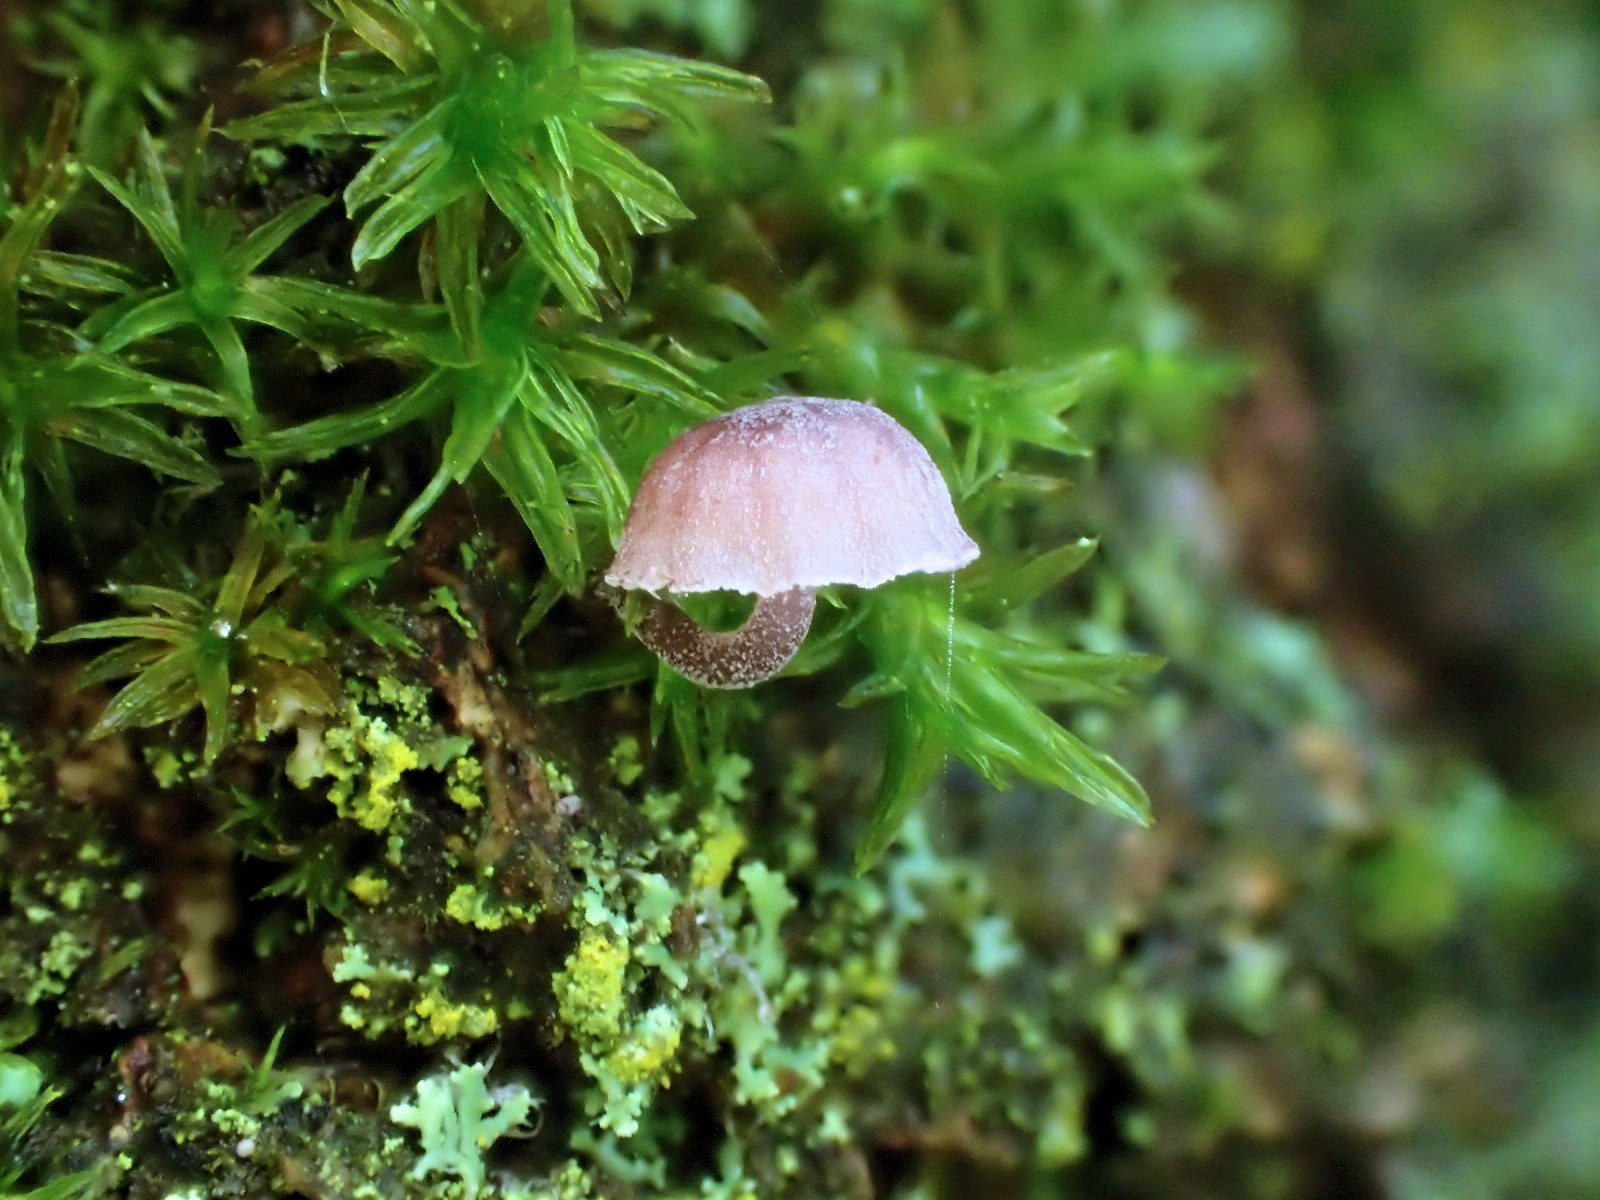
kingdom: Fungi
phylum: Basidiomycota
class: Agaricomycetes
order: Agaricales
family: Mycenaceae
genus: Mycena
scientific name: Mycena meliigena
